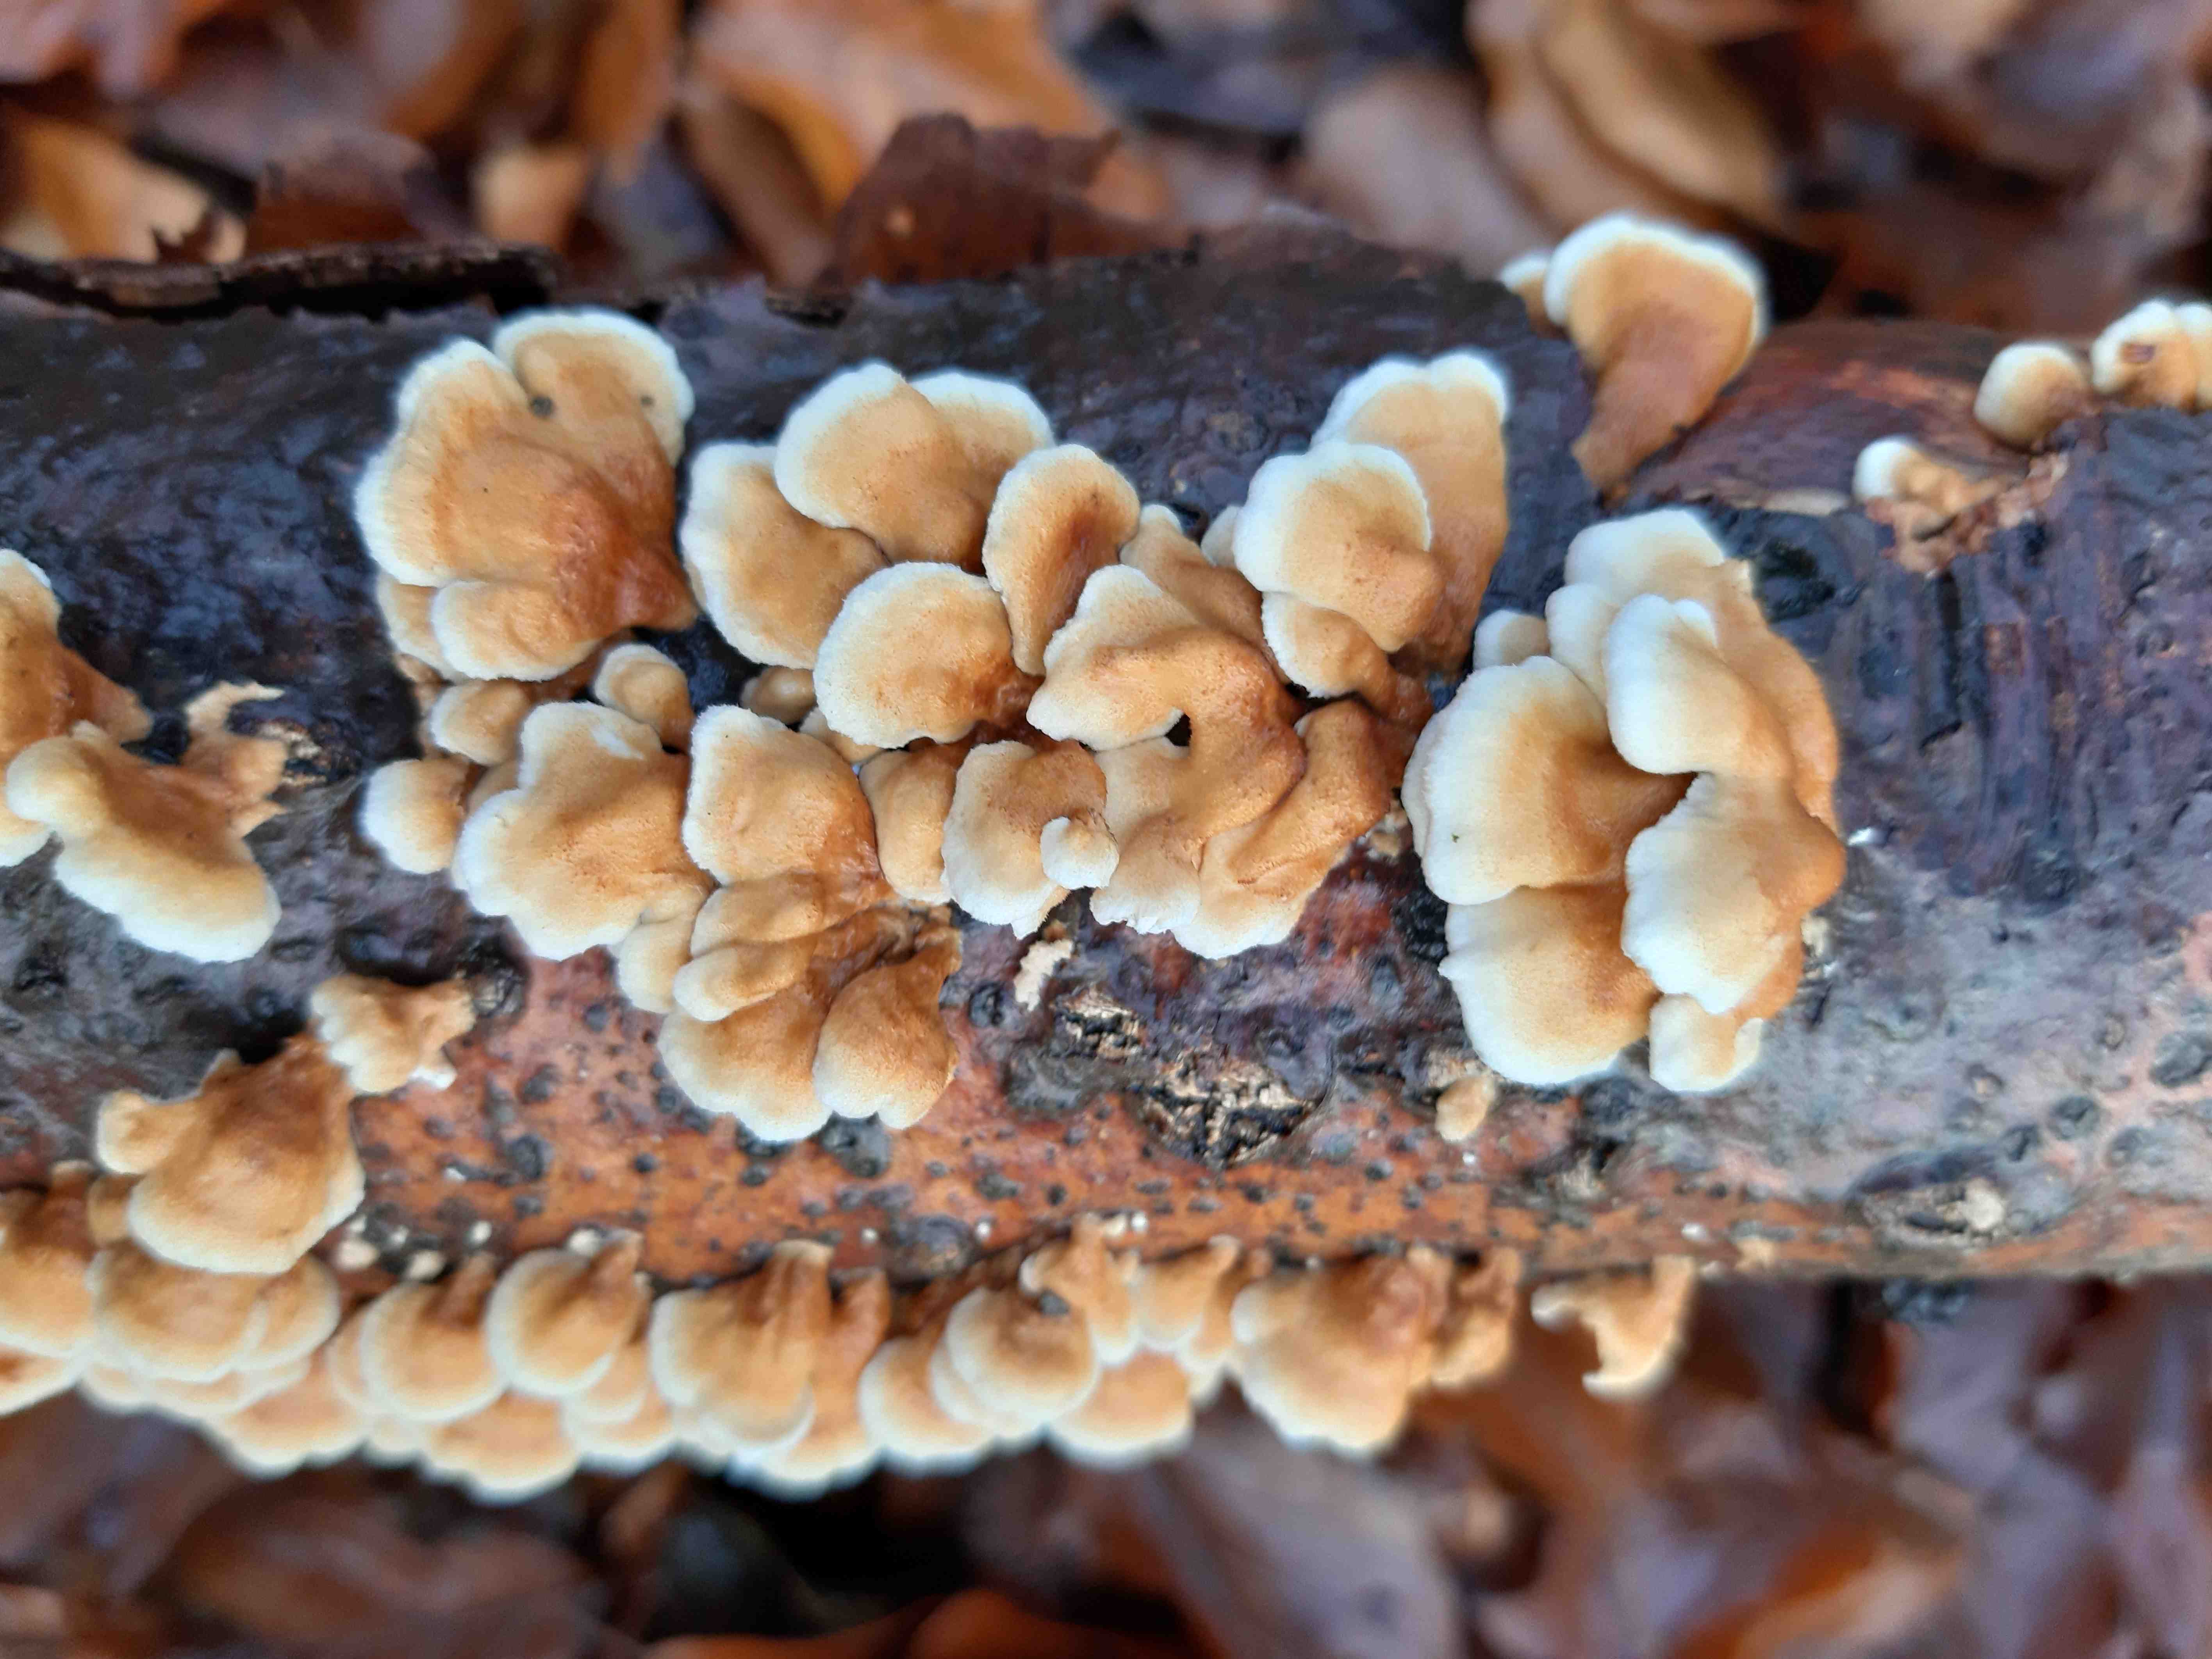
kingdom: Fungi
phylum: Basidiomycota
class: Agaricomycetes
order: Amylocorticiales
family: Amylocorticiaceae
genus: Plicaturopsis
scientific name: Plicaturopsis crispa
